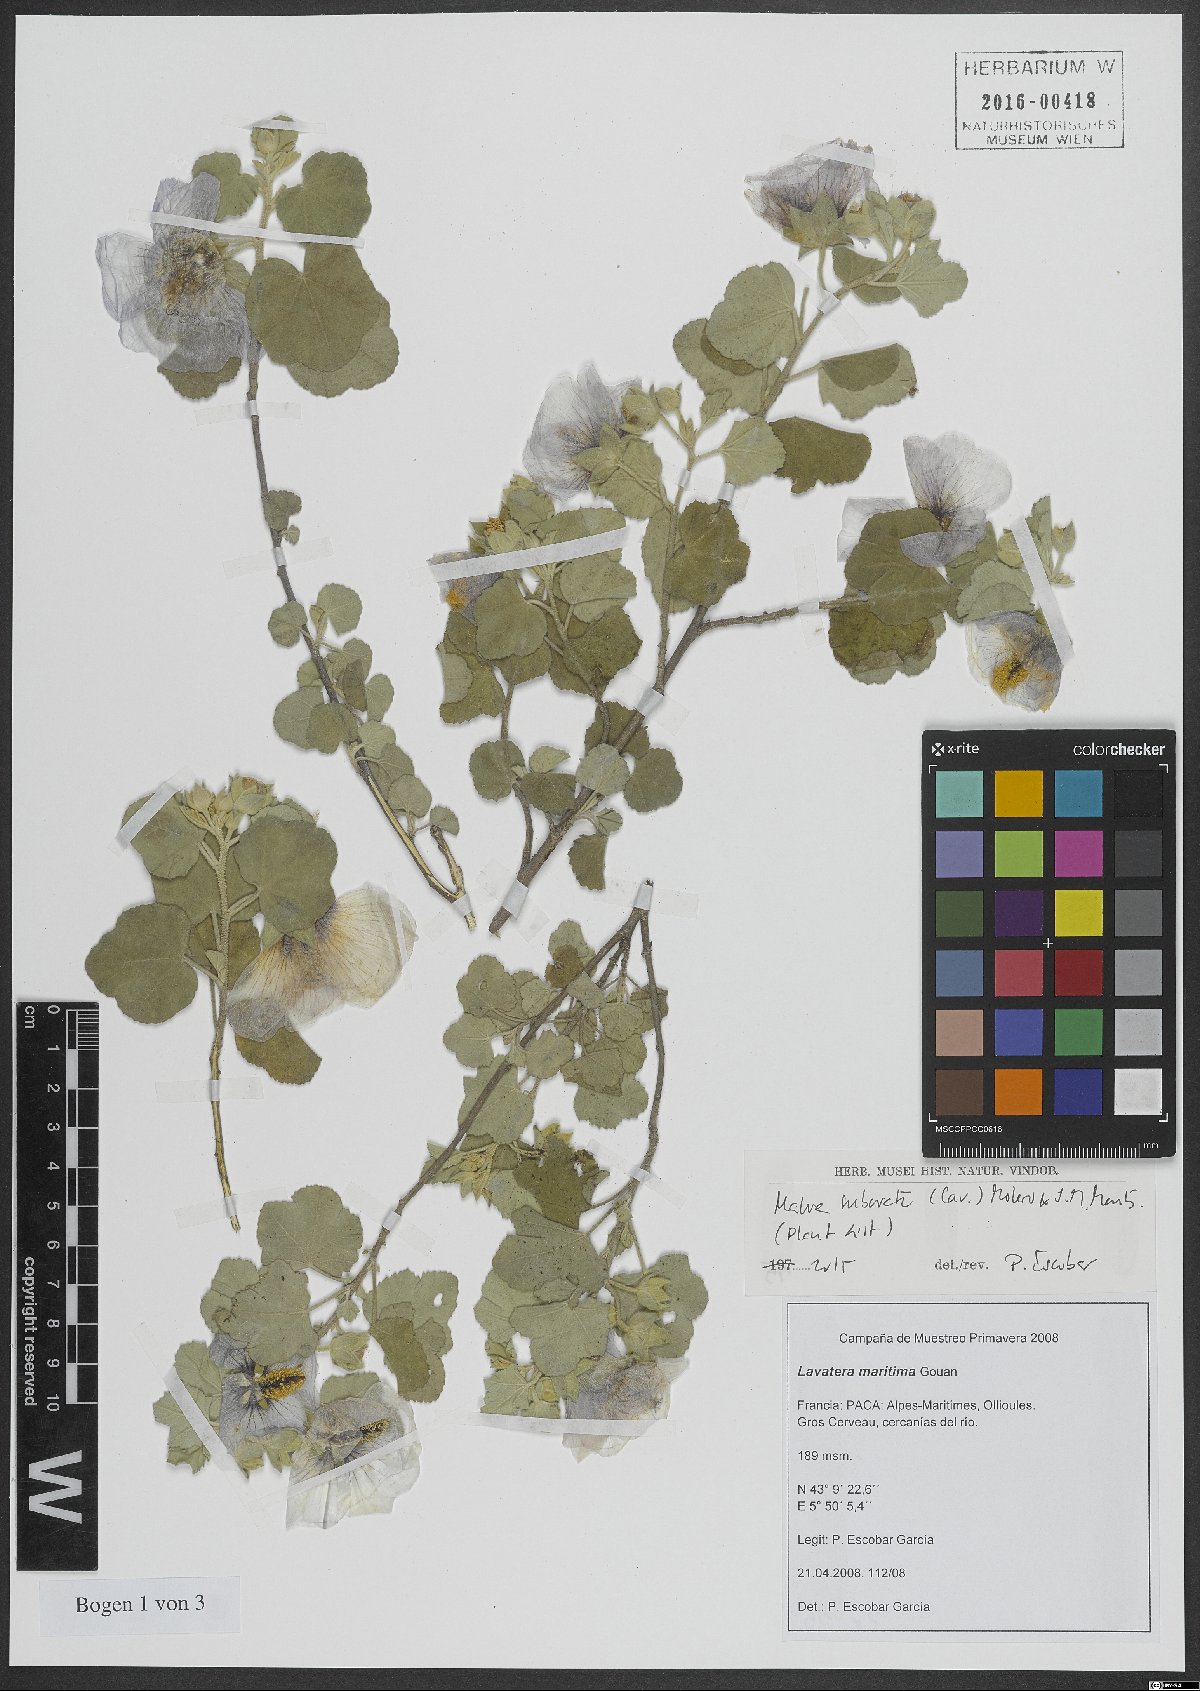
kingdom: Plantae
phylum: Tracheophyta
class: Magnoliopsida
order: Malvales
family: Malvaceae
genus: Malva
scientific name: Malva subovata
